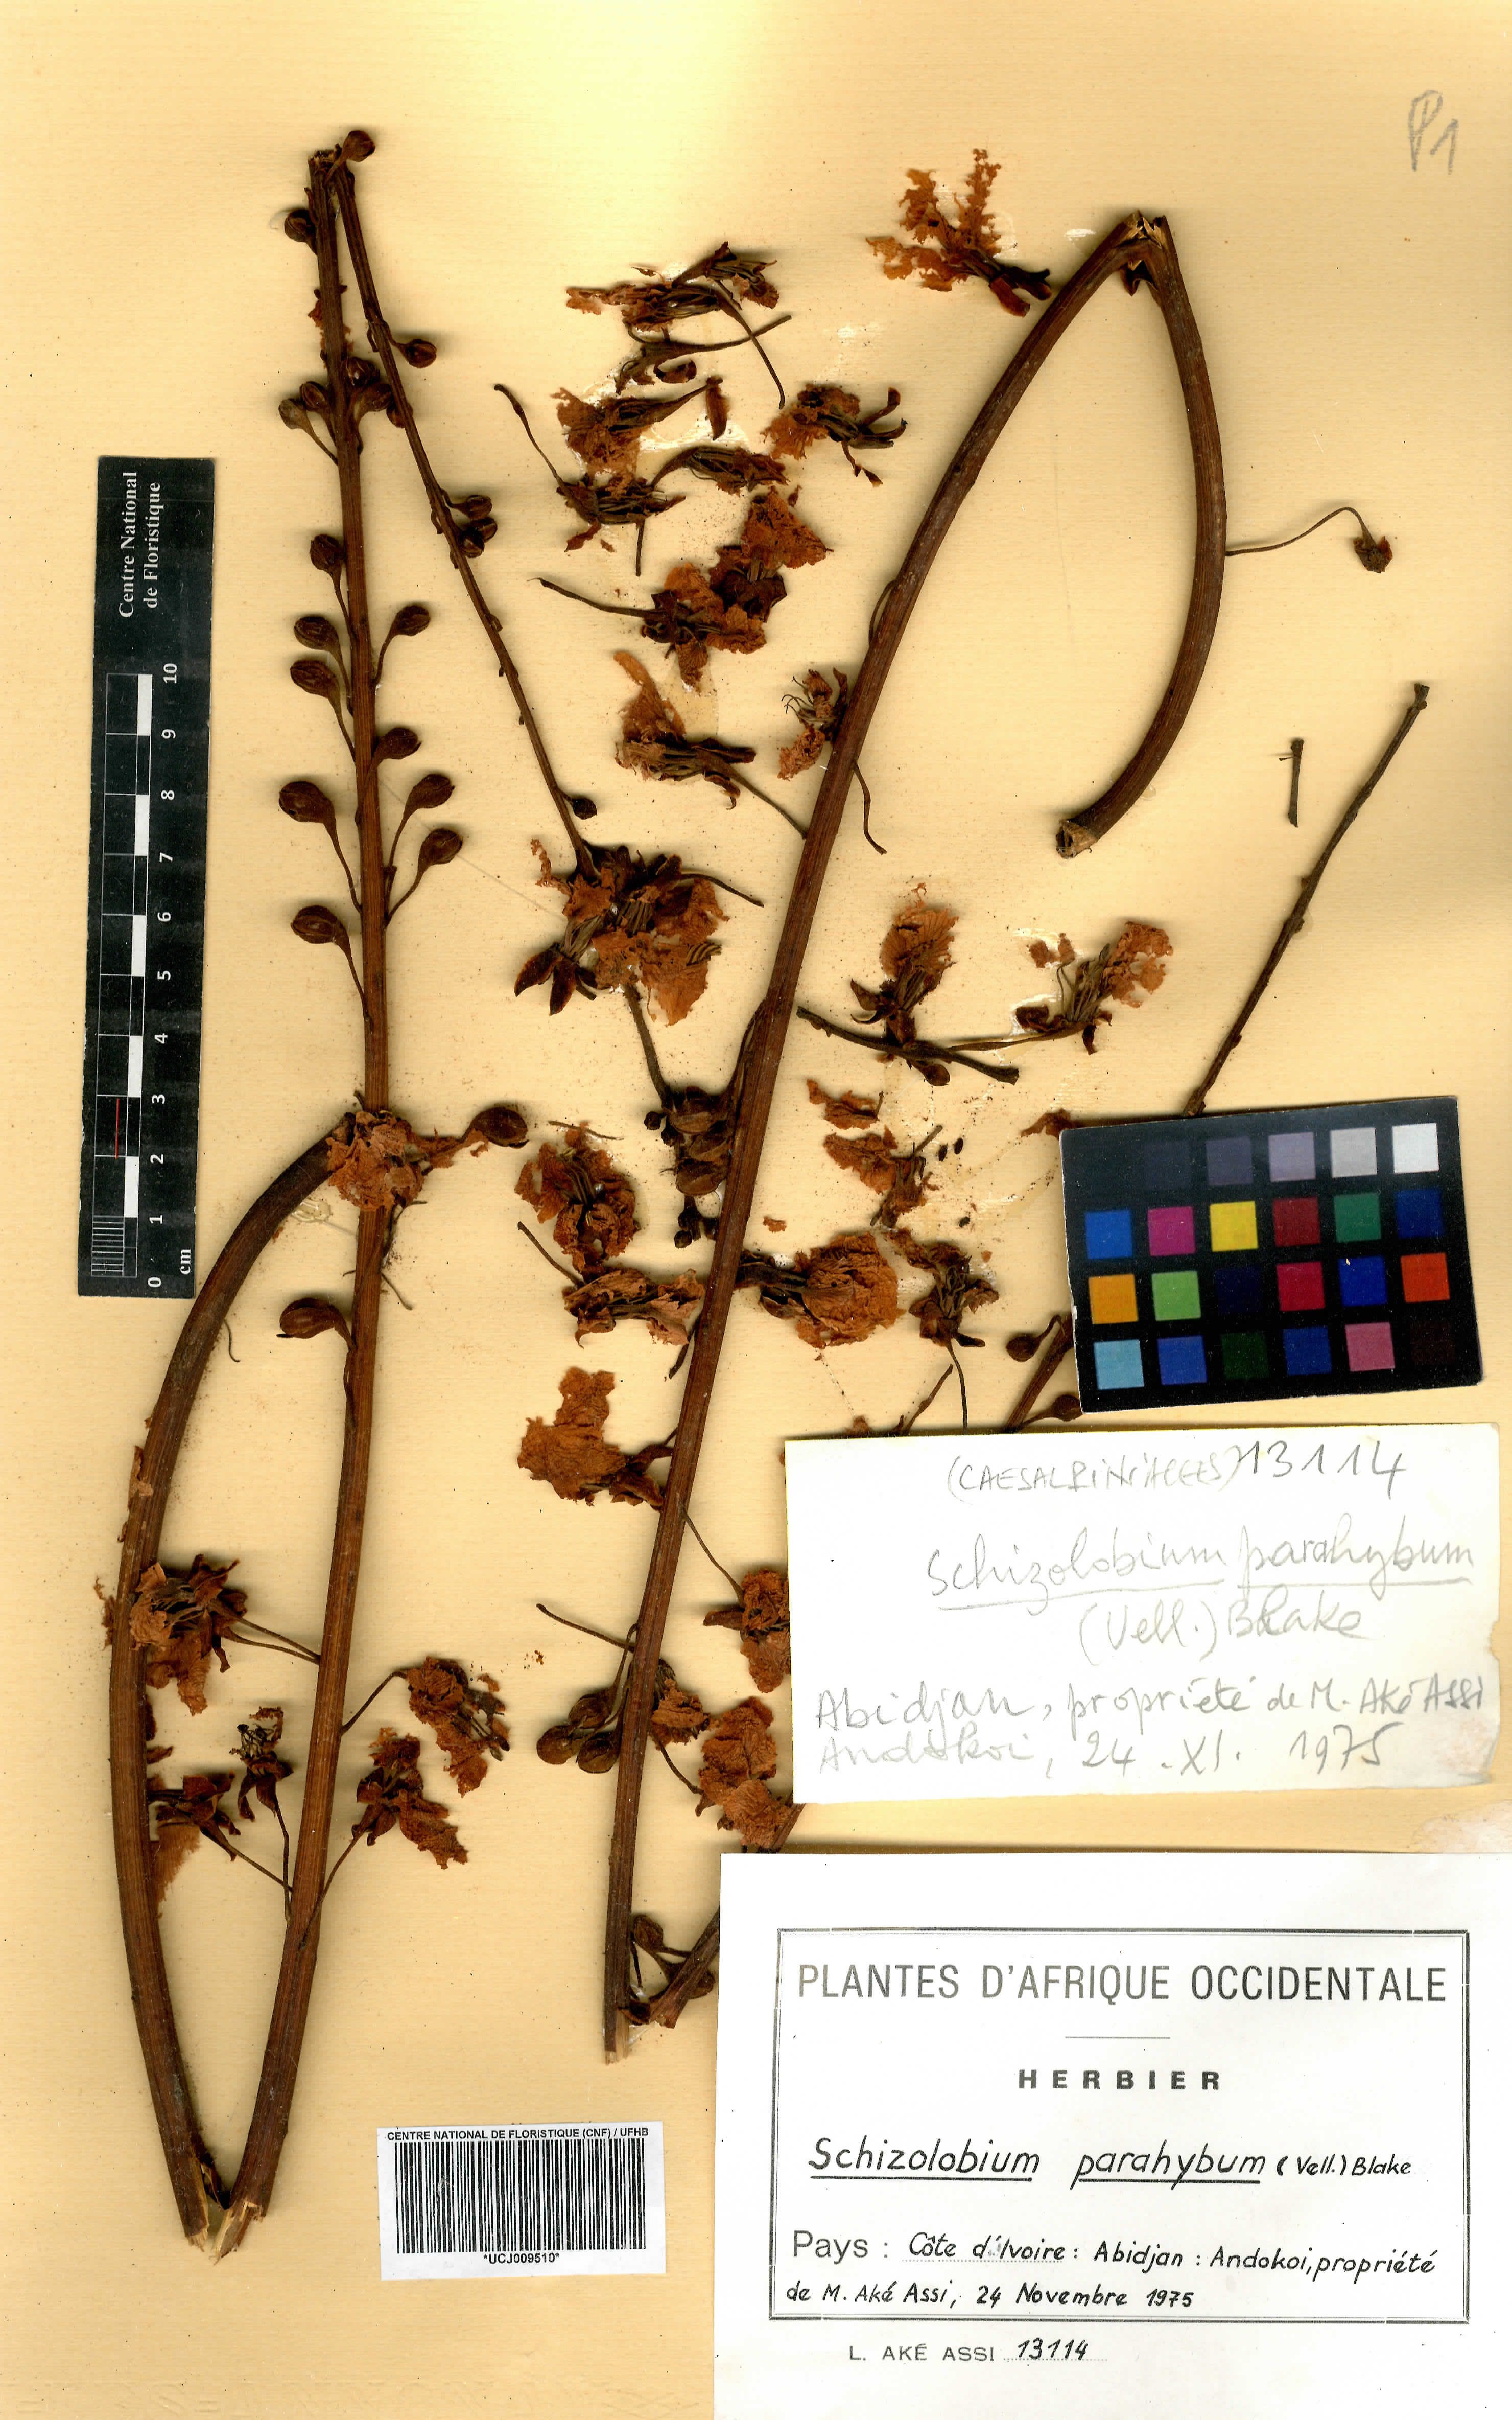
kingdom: Plantae
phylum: Tracheophyta
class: Magnoliopsida
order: Fabales
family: Fabaceae
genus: Schizolobium
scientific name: Schizolobium parahyba
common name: Brazilian firetree
